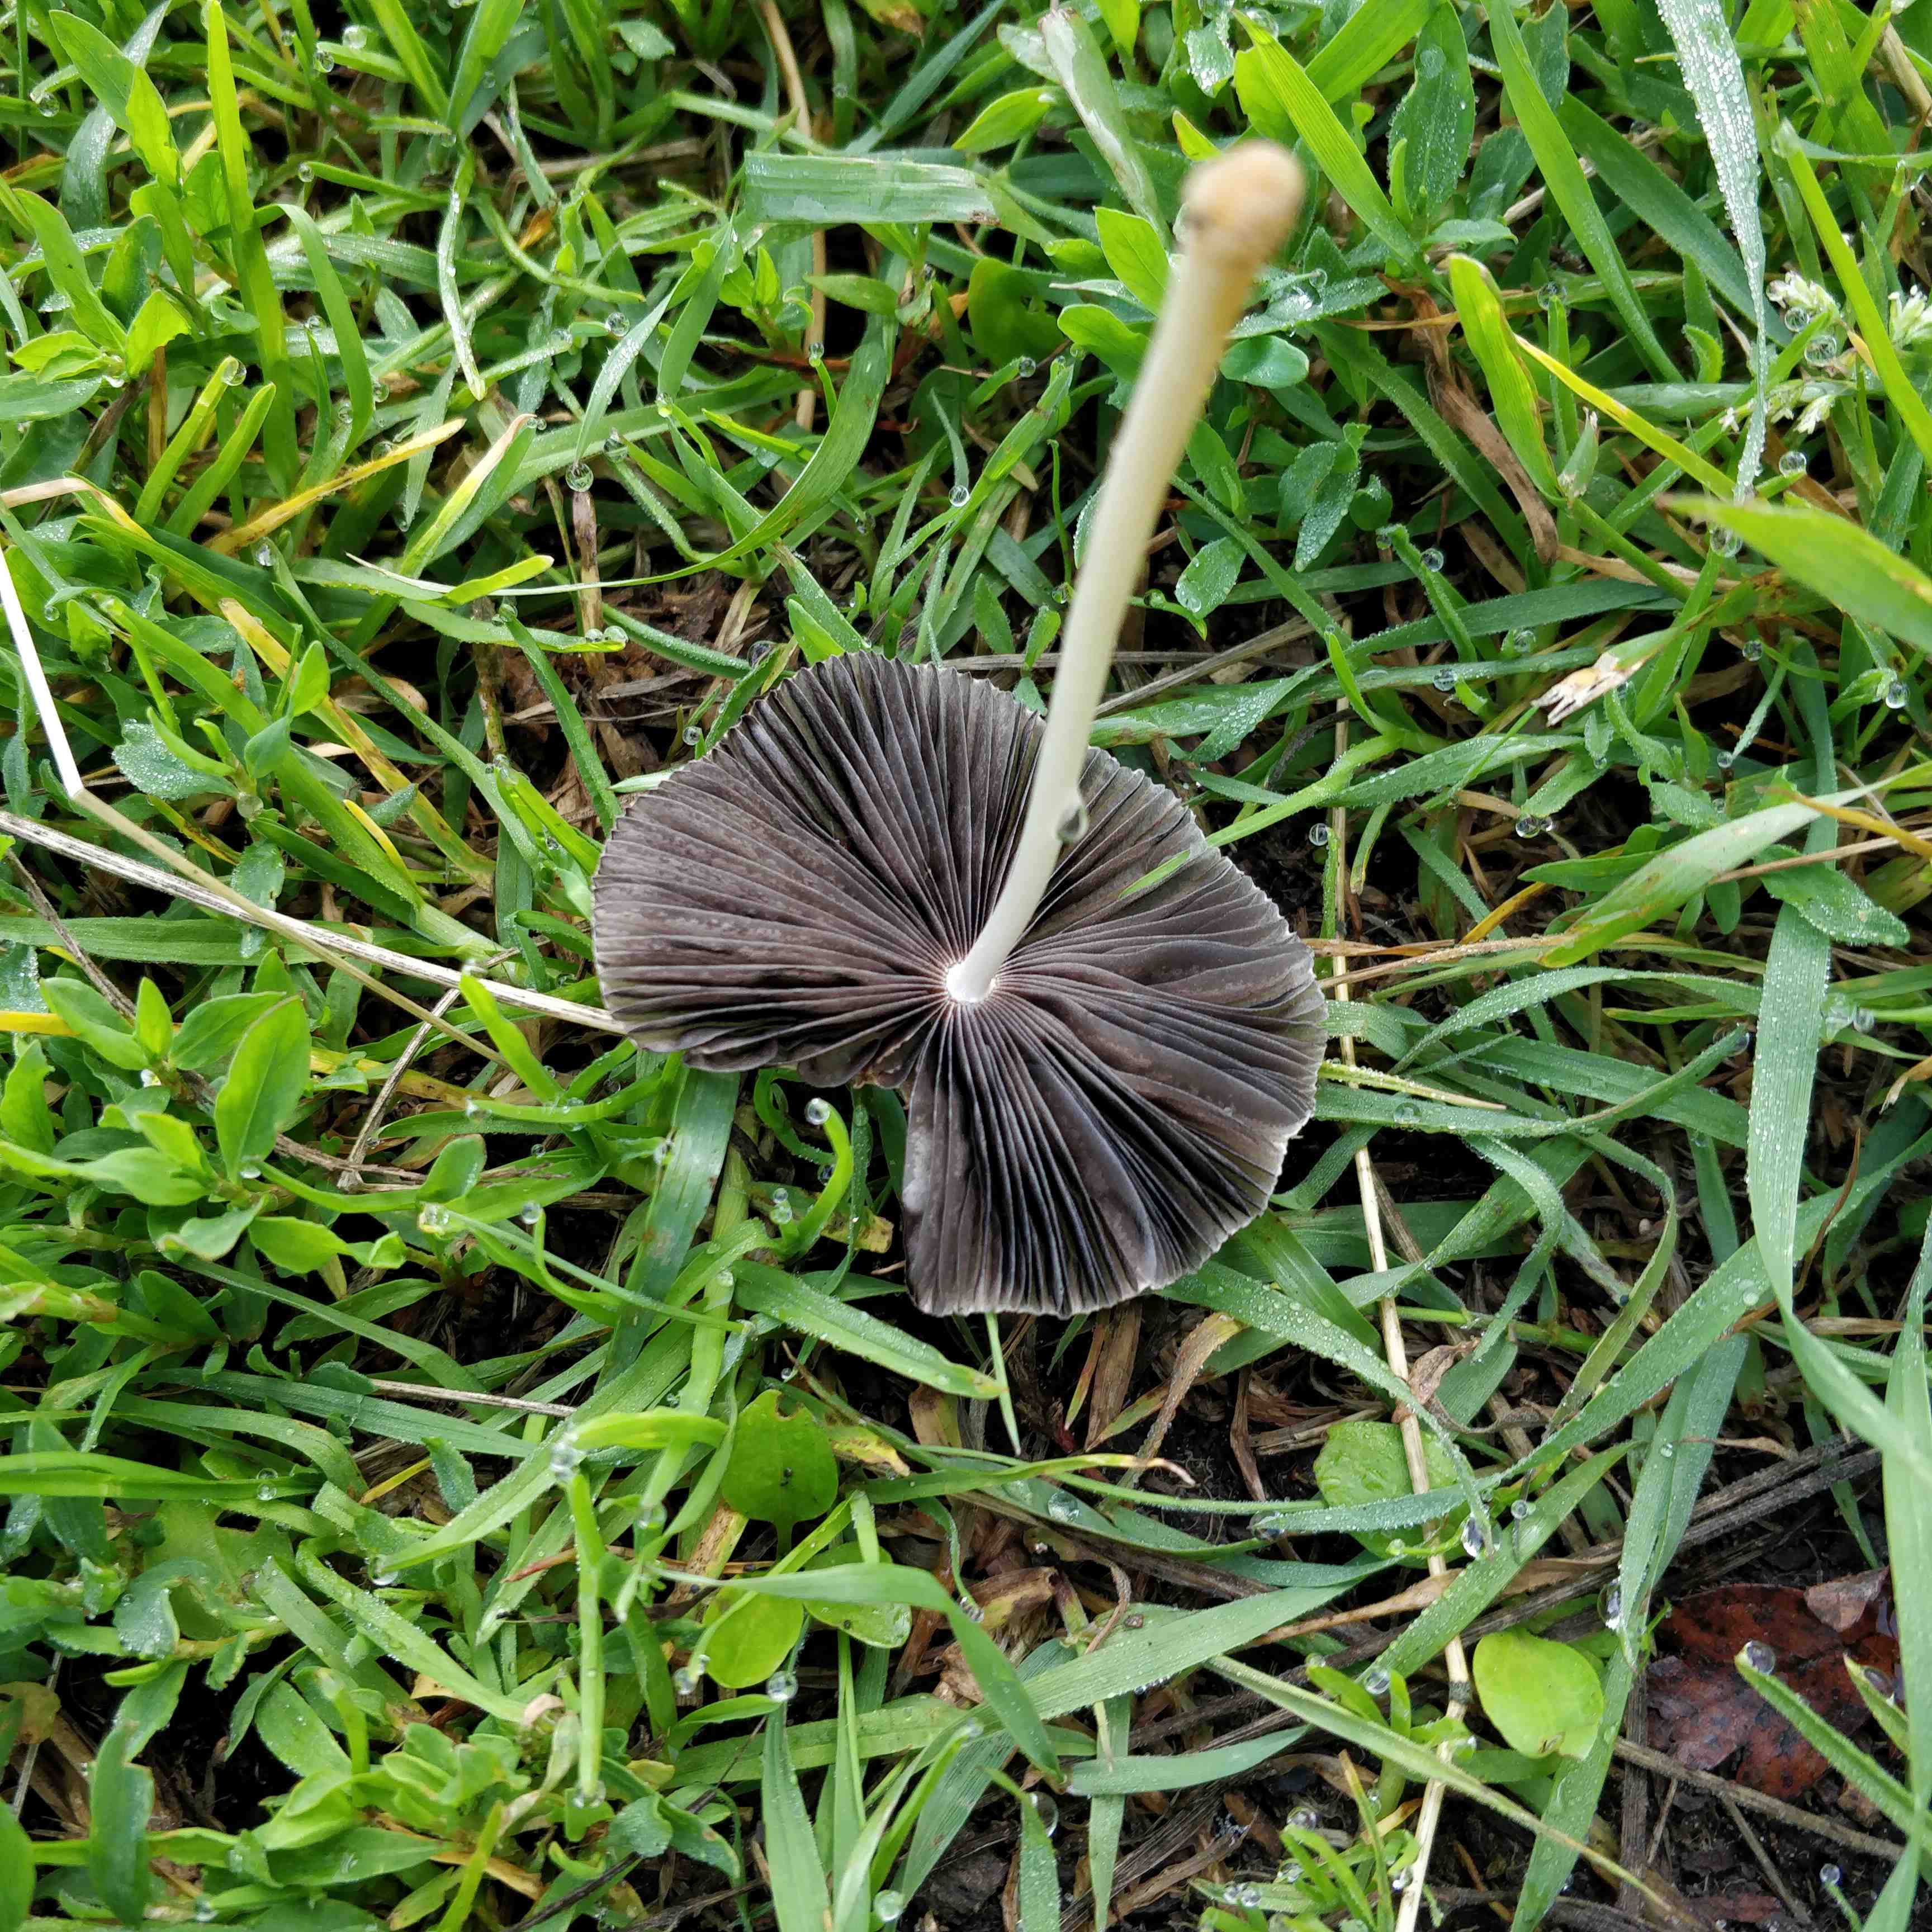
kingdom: Fungi
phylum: Basidiomycota
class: Agaricomycetes
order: Agaricales
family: Psathyrellaceae
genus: Parasola
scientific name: Parasola
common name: hjulhat
